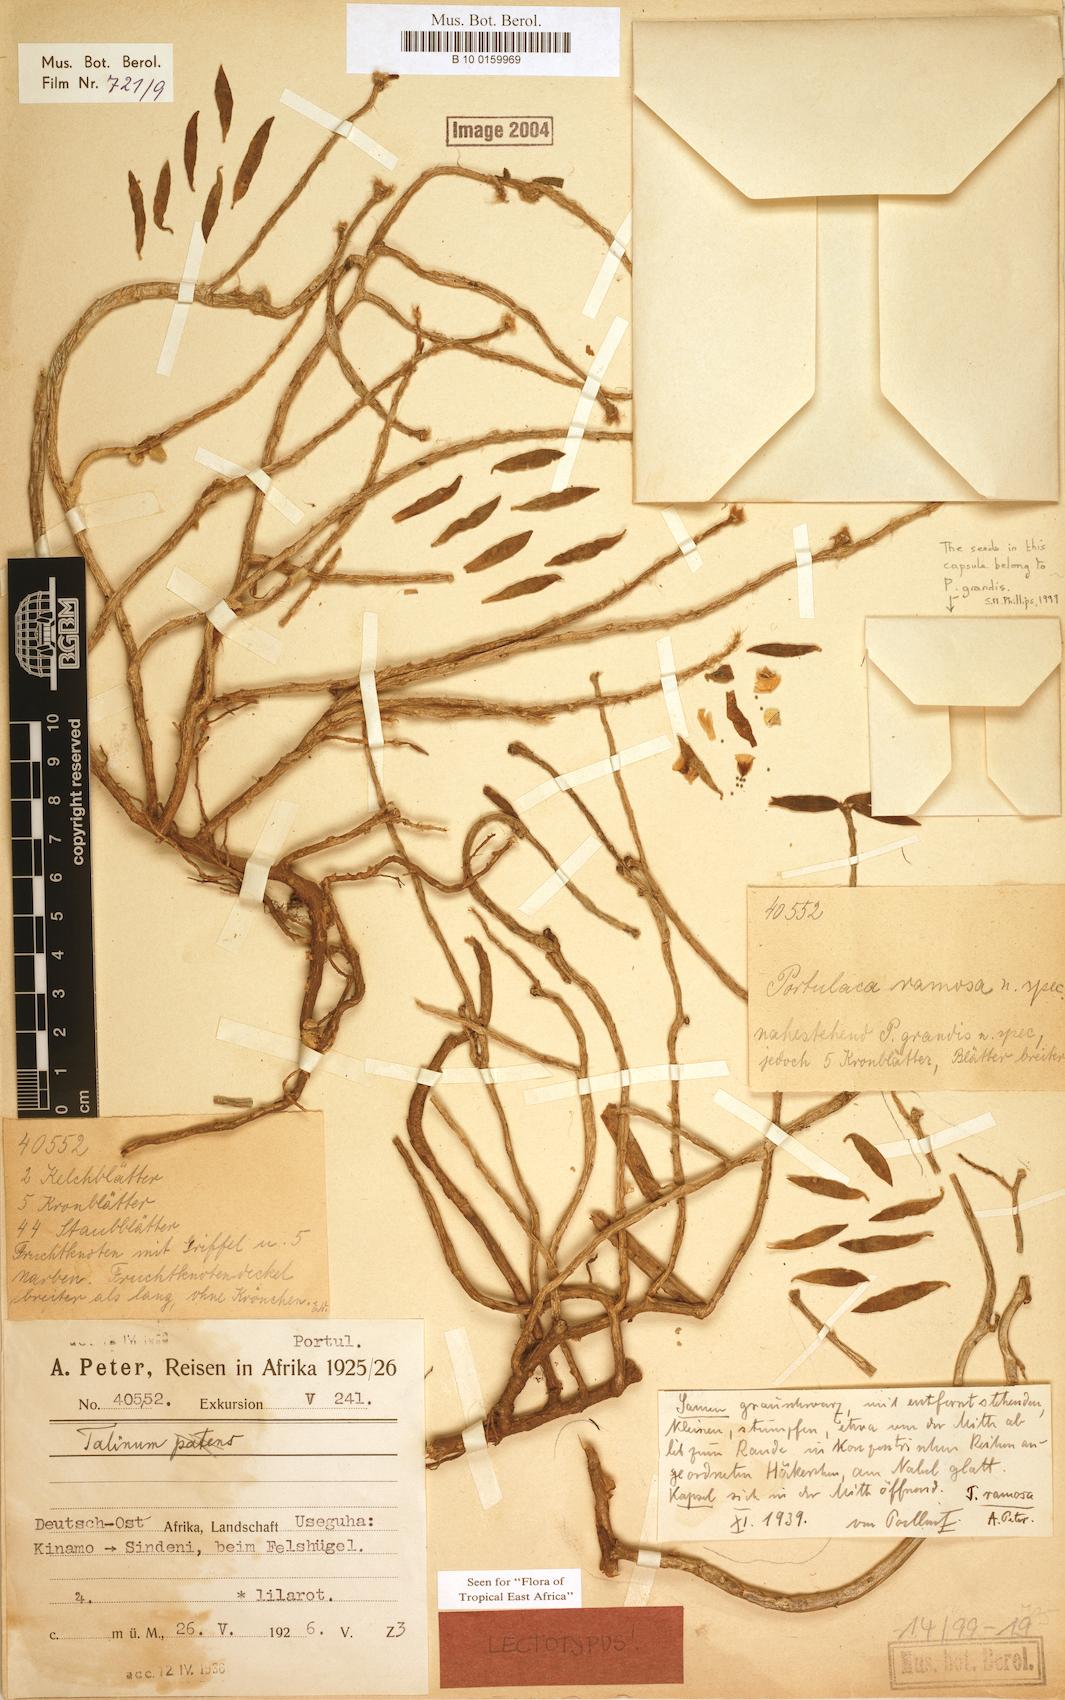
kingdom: Plantae
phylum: Tracheophyta
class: Magnoliopsida
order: Caryophyllales
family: Portulacaceae
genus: Portulaca
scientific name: Portulaca ramosa
